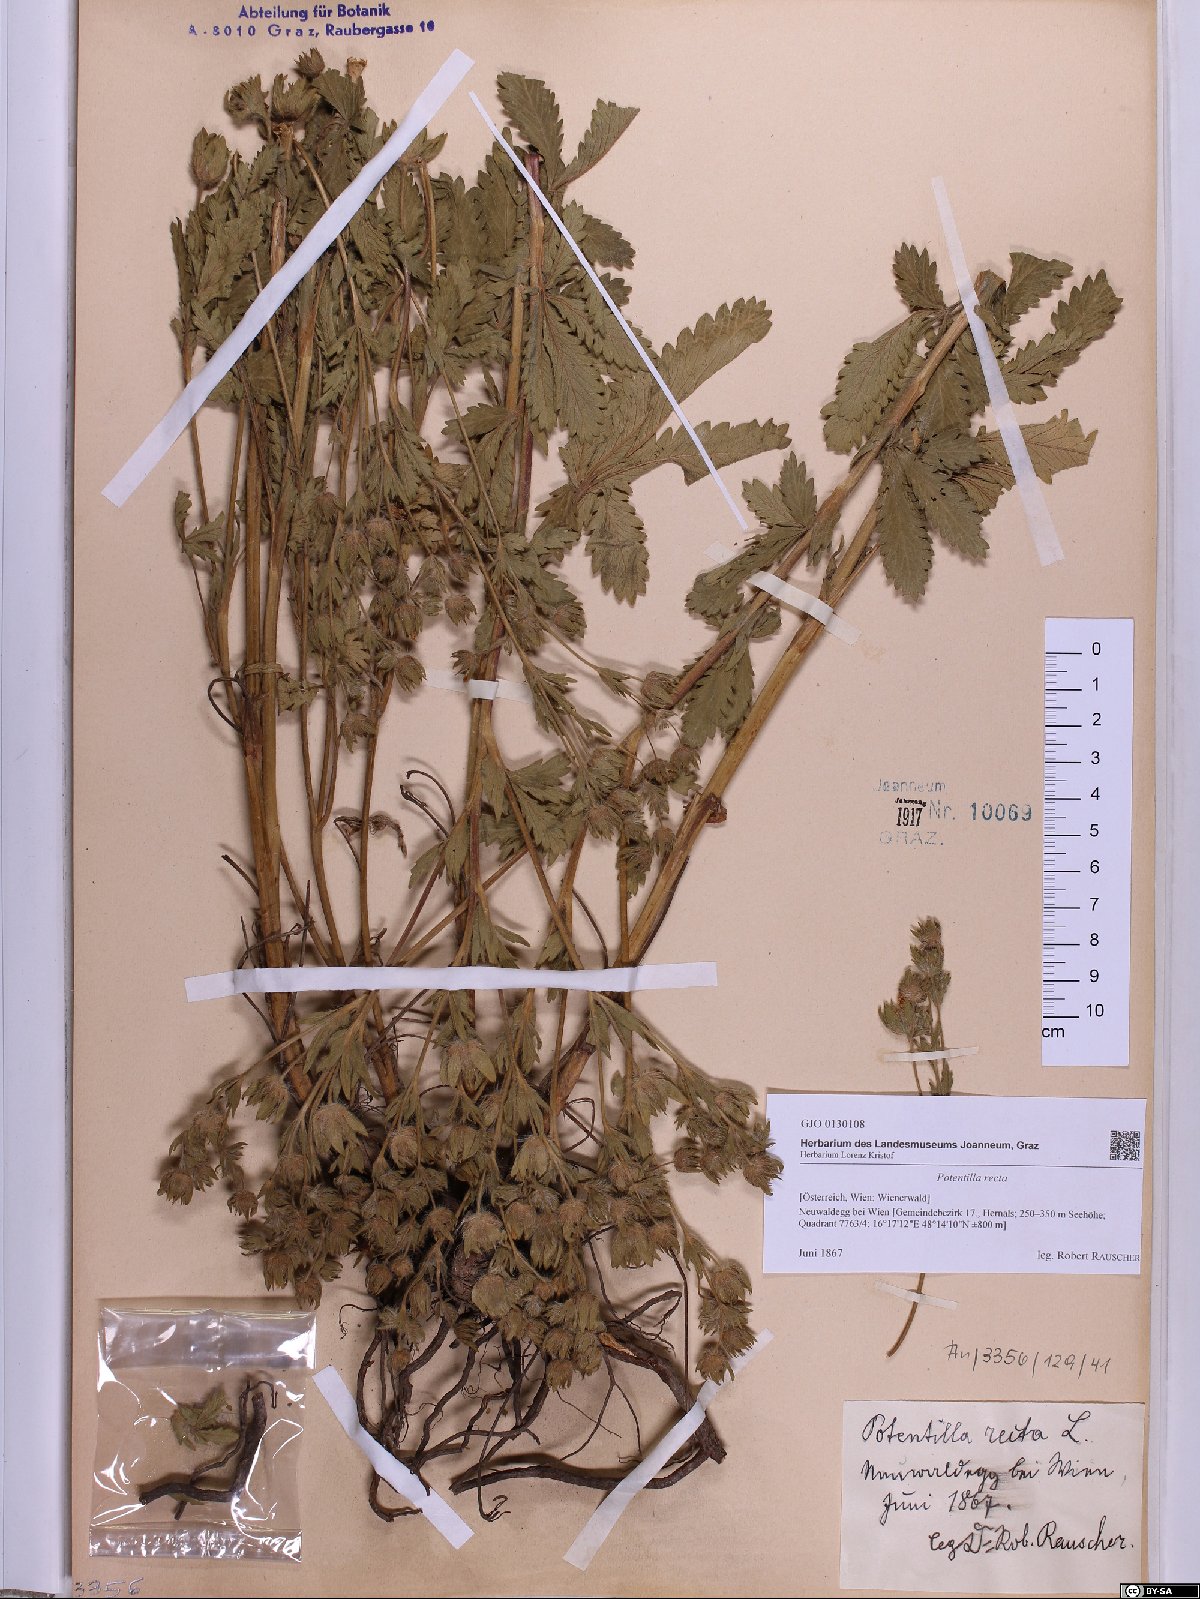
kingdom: Plantae
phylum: Tracheophyta
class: Magnoliopsida
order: Rosales
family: Rosaceae
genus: Potentilla
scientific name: Potentilla recta
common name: Sulphur cinquefoil
